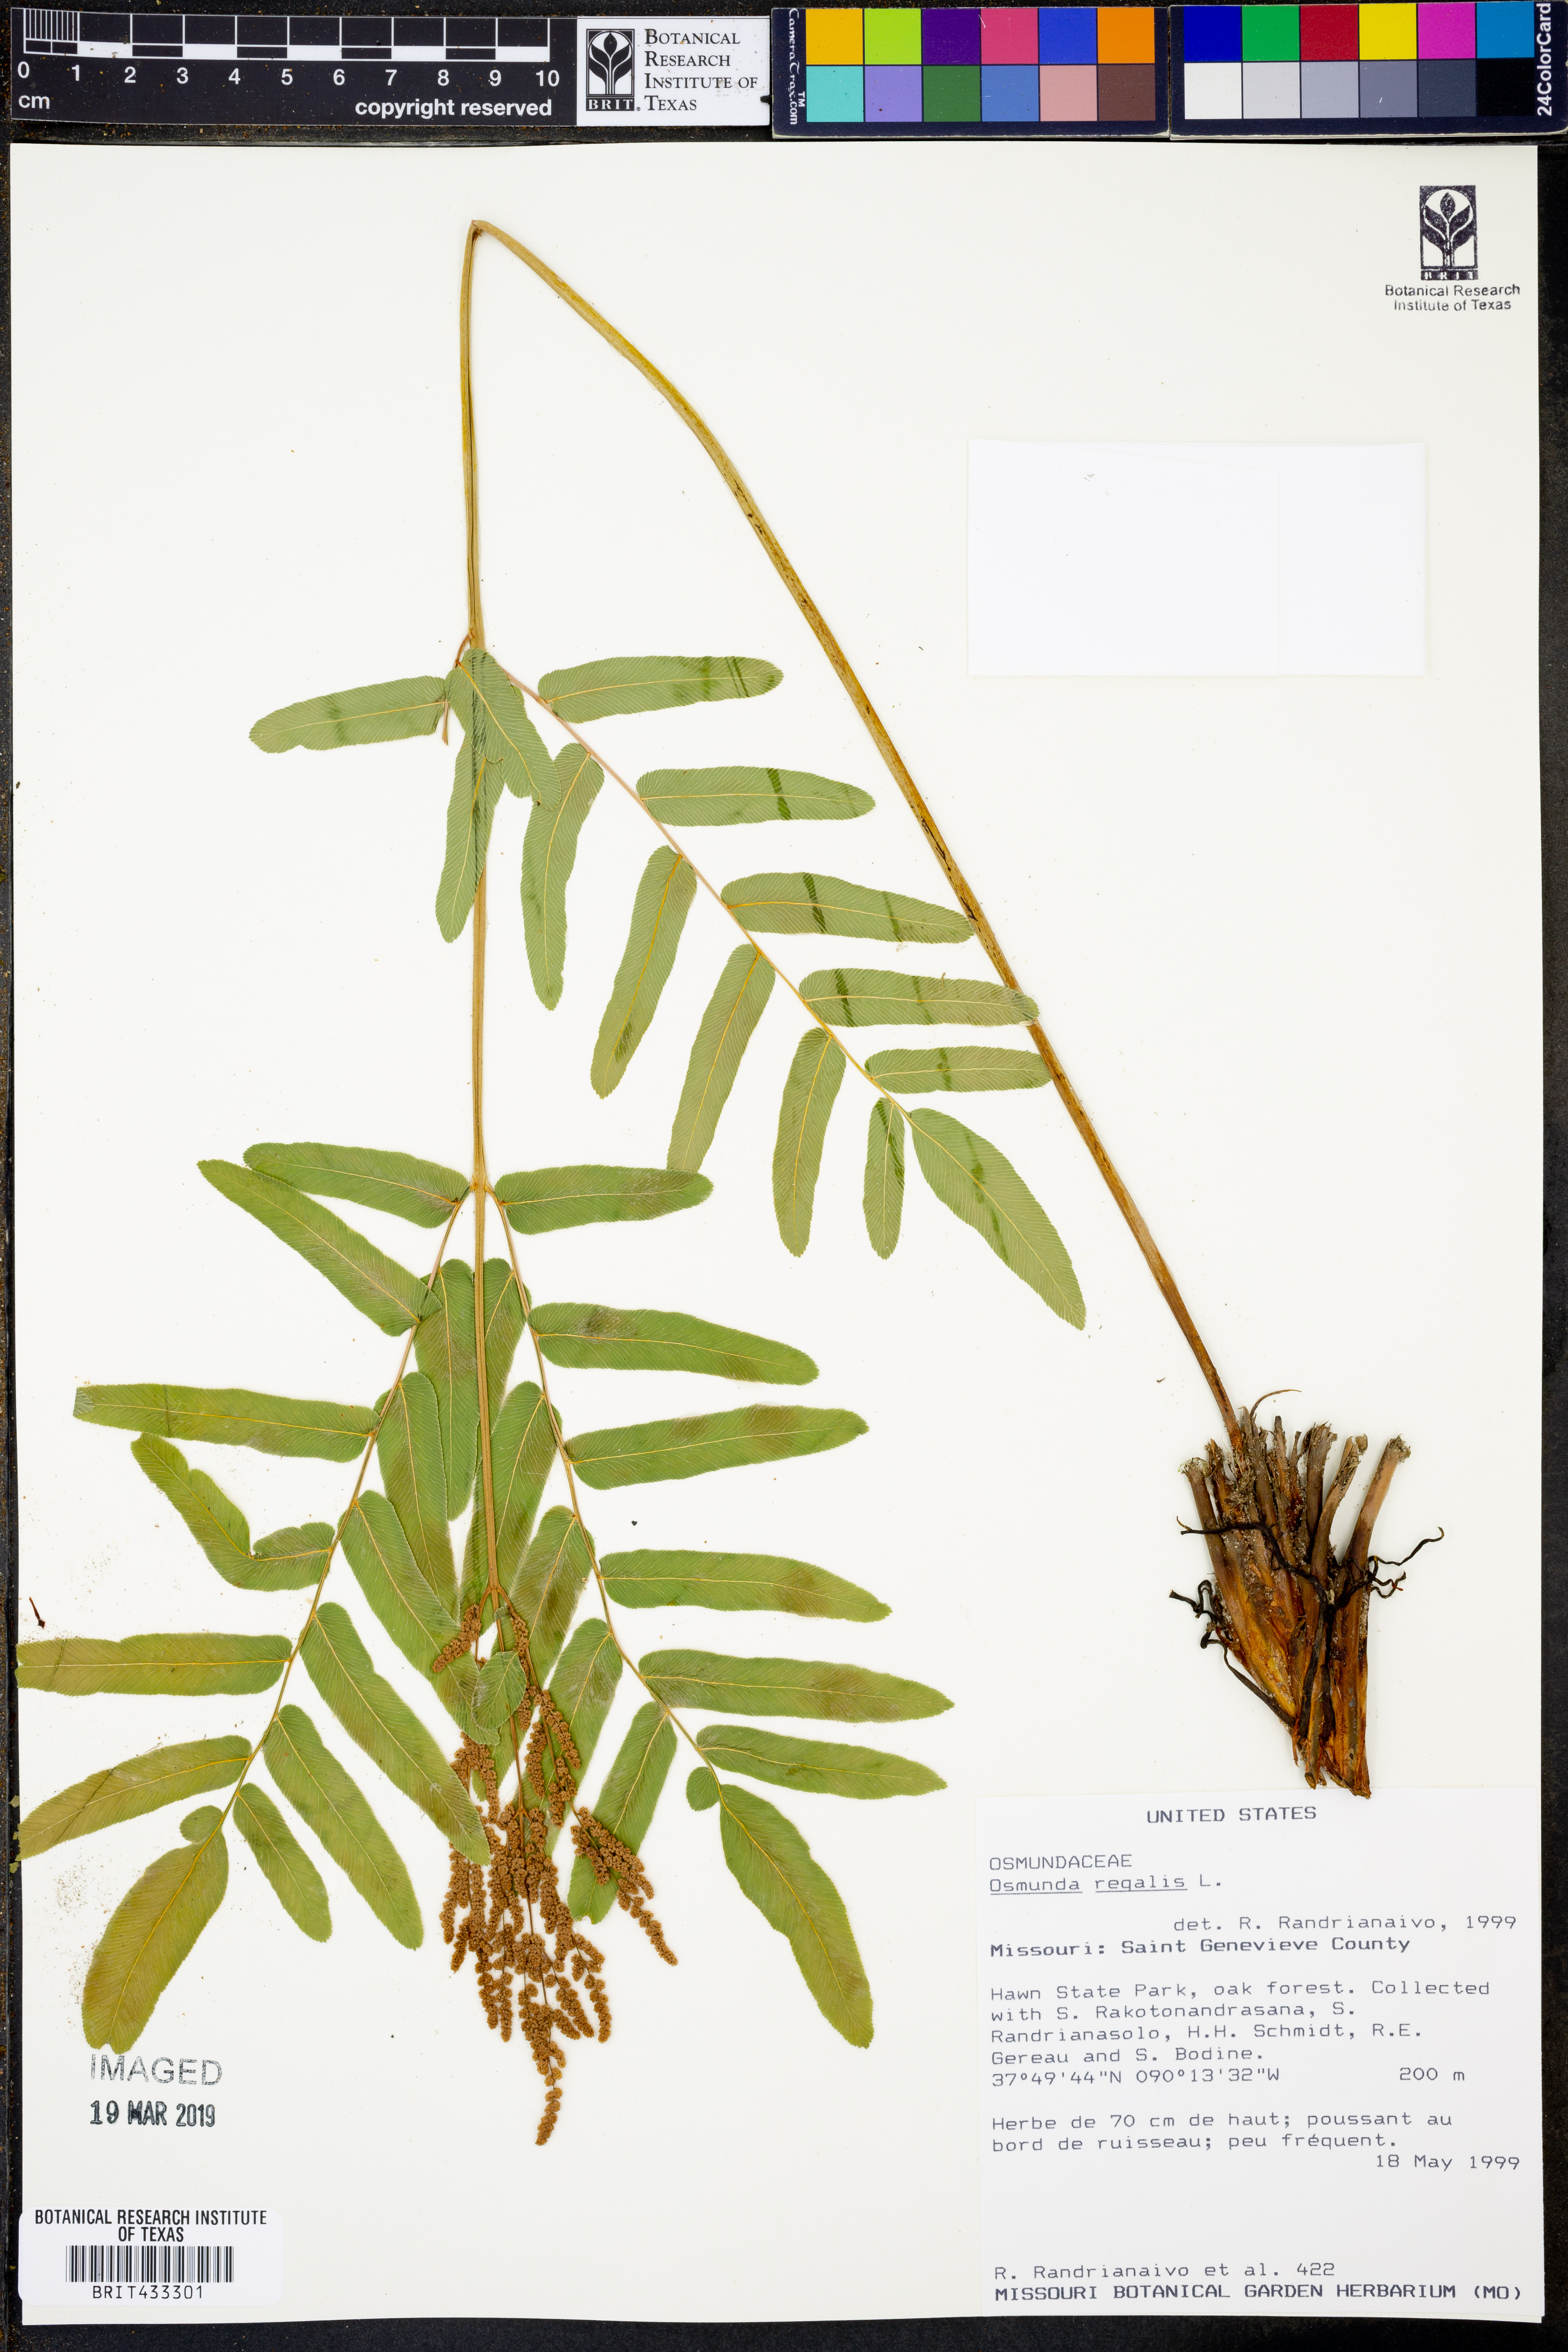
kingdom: Plantae
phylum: Tracheophyta
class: Polypodiopsida
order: Osmundales
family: Osmundaceae
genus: Osmunda
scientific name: Osmunda regalis
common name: Royal fern
